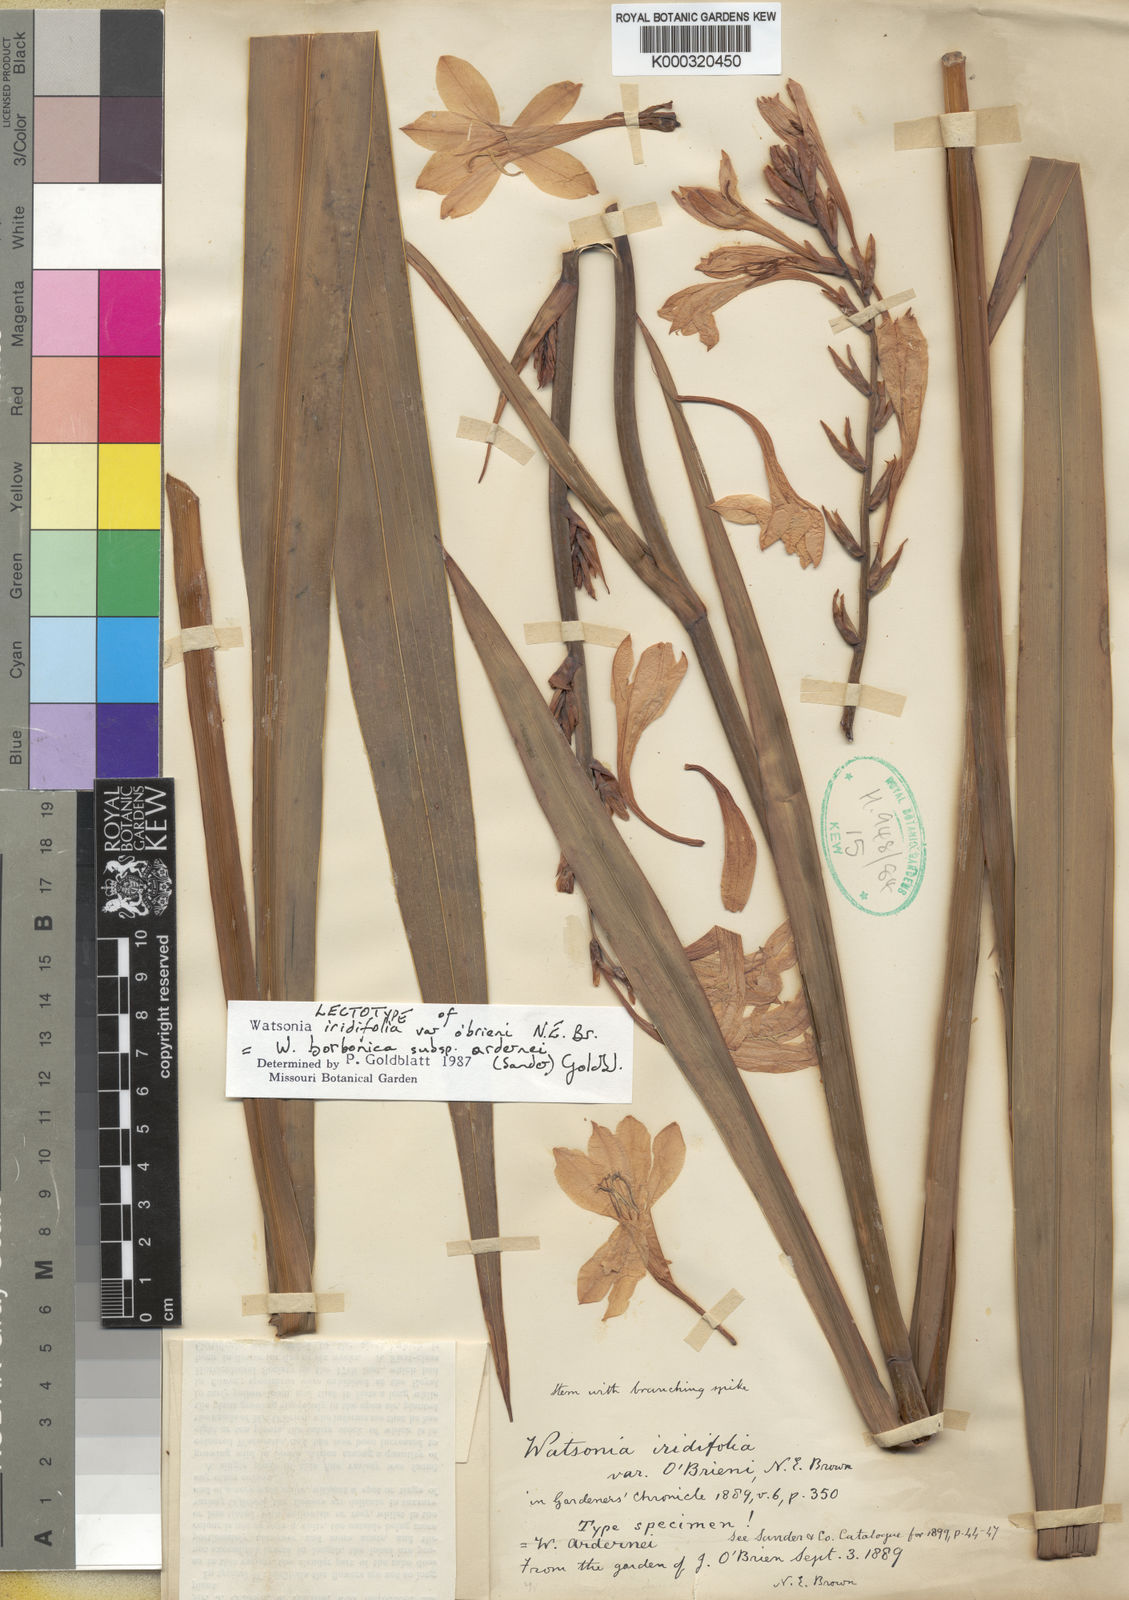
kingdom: Plantae
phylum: Tracheophyta
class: Liliopsida
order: Asparagales
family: Iridaceae
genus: Watsonia
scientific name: Watsonia borbonica
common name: Bugle-lily
